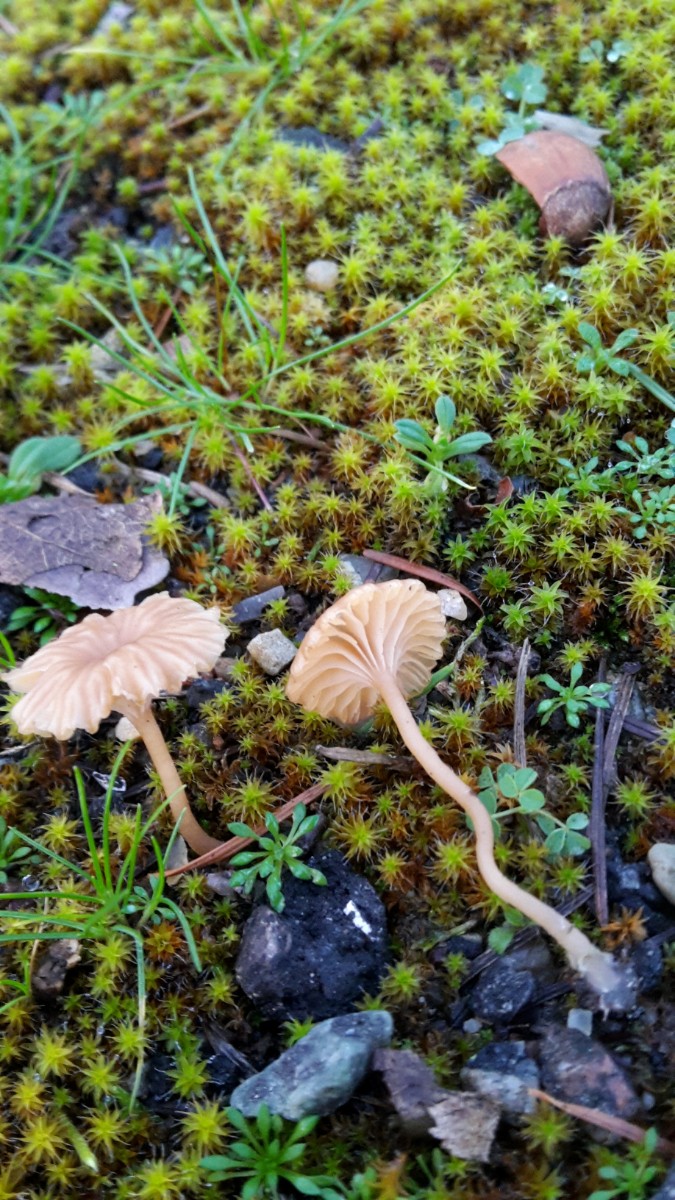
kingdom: Fungi
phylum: Basidiomycota
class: Agaricomycetes
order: Agaricales
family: Tricholomataceae
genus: Omphalina
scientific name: Omphalina pyxidata
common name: rødbrun navlehat
